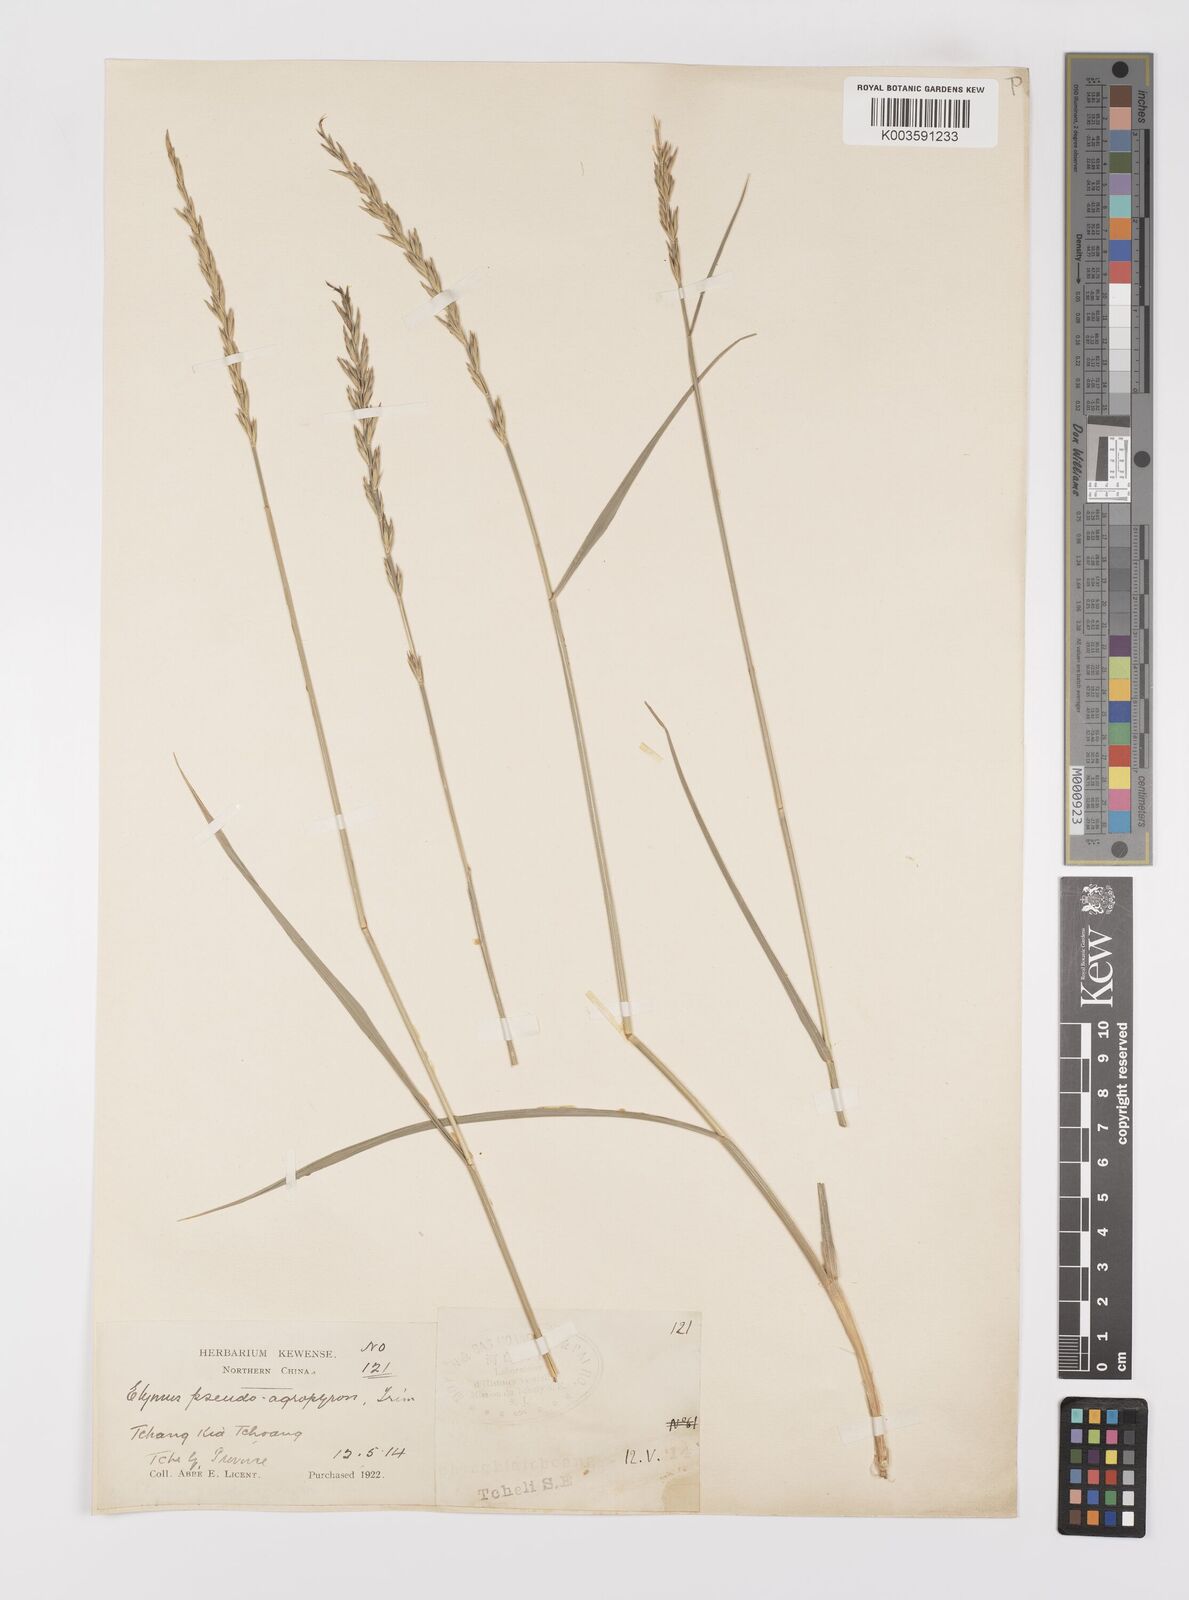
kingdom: Plantae
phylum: Tracheophyta
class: Liliopsida
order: Poales
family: Poaceae
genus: Leymus
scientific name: Leymus chinensis
